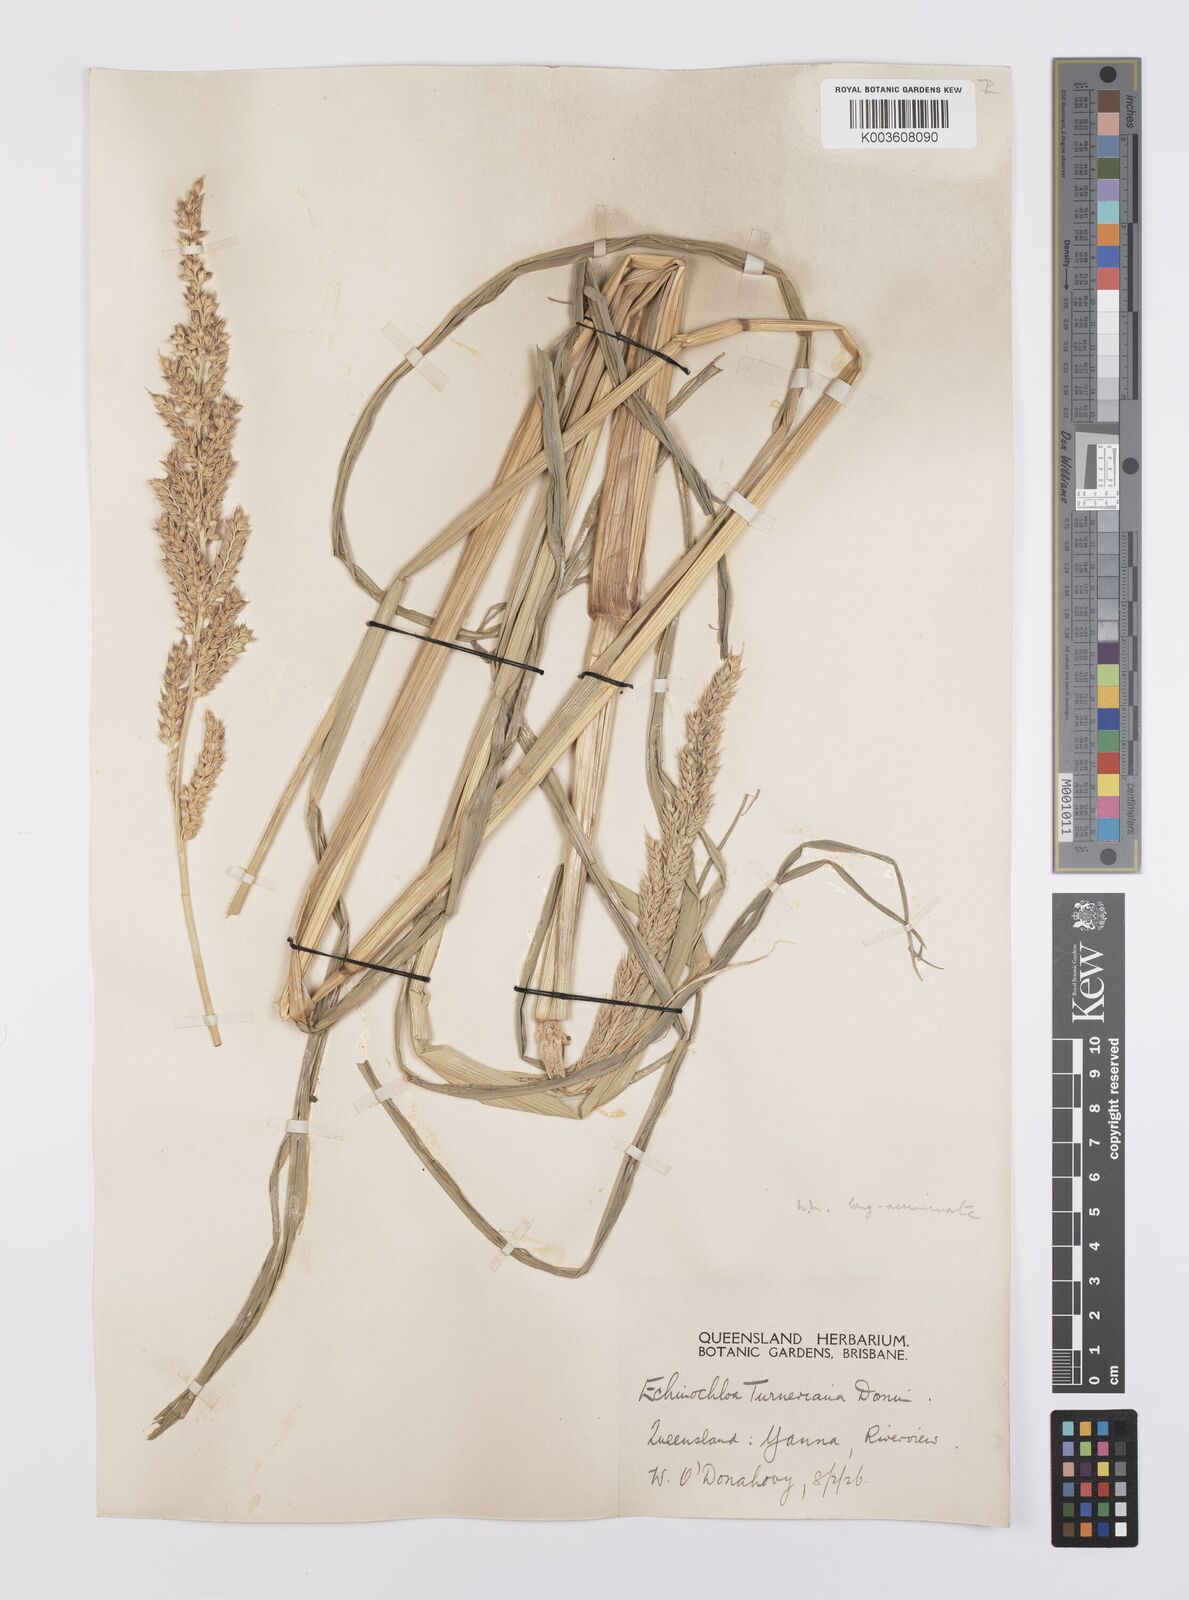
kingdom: Plantae
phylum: Tracheophyta
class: Liliopsida
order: Poales
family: Poaceae
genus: Echinochloa
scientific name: Echinochloa turneriana
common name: Channel millet
